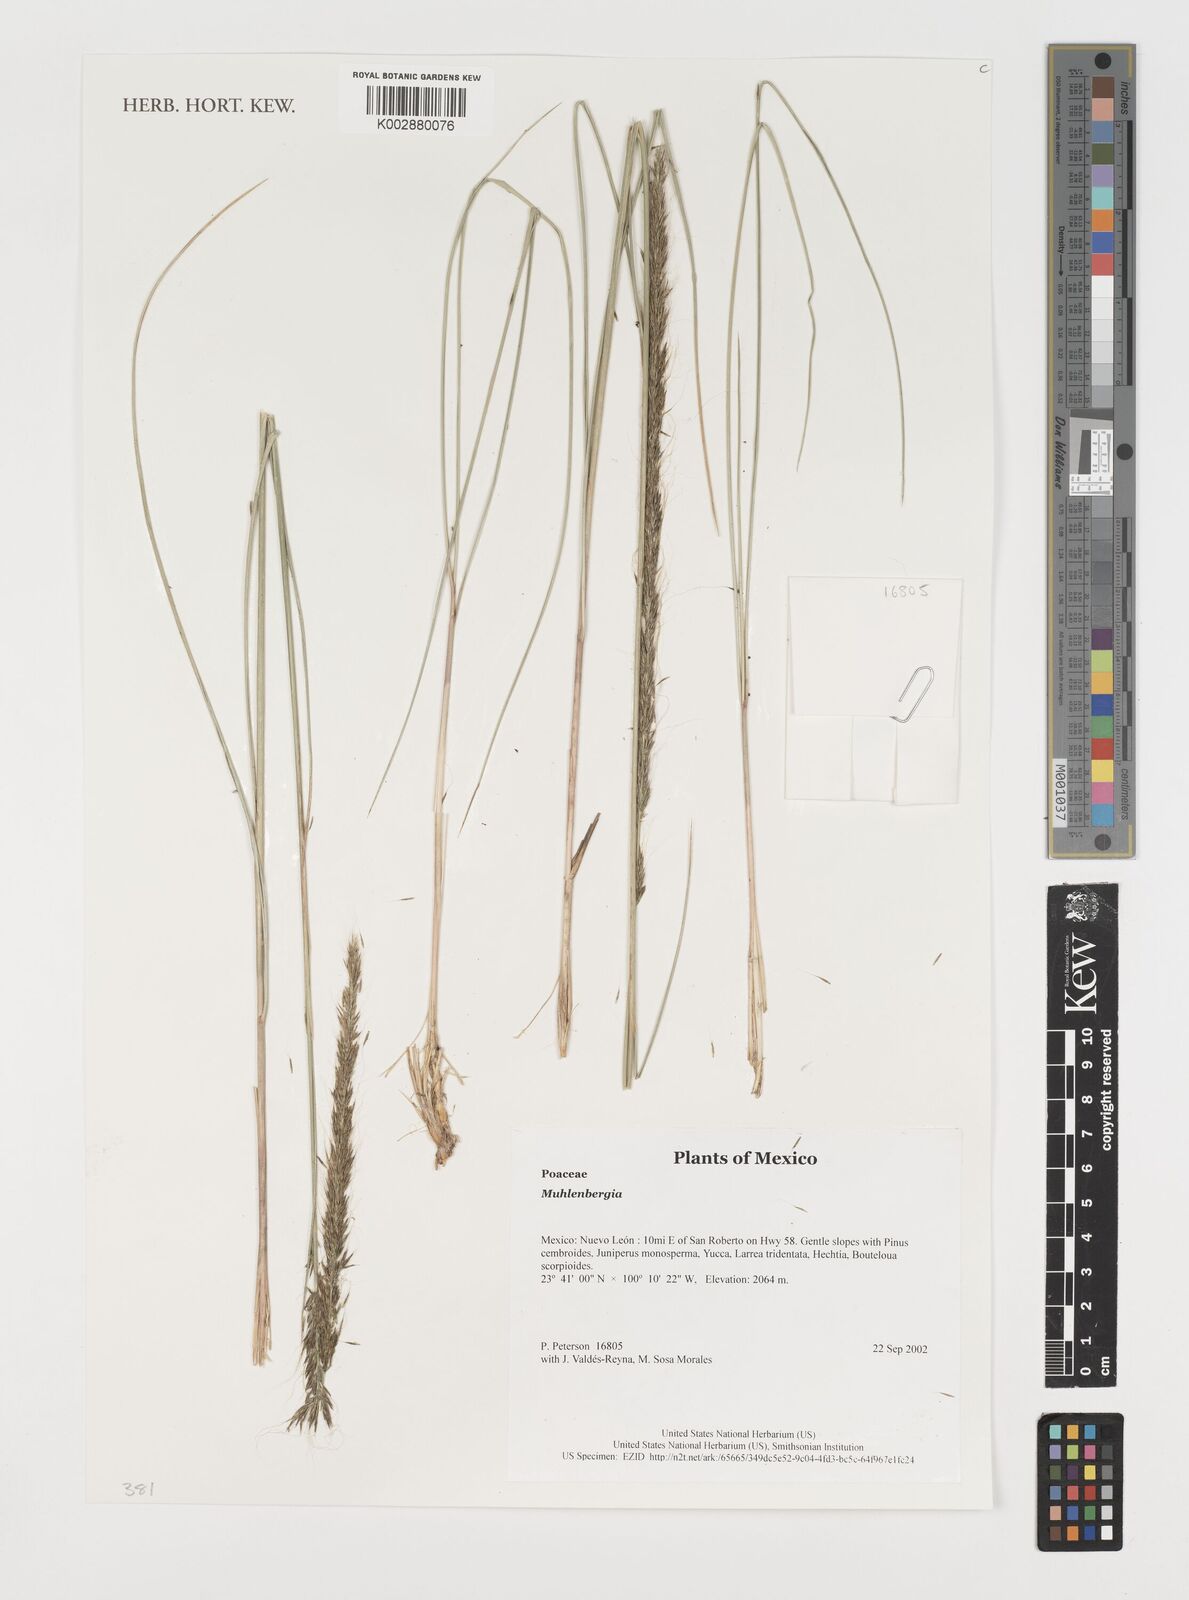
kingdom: Plantae
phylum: Tracheophyta
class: Liliopsida
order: Poales
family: Poaceae
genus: Muhlenbergia
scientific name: Muhlenbergia
